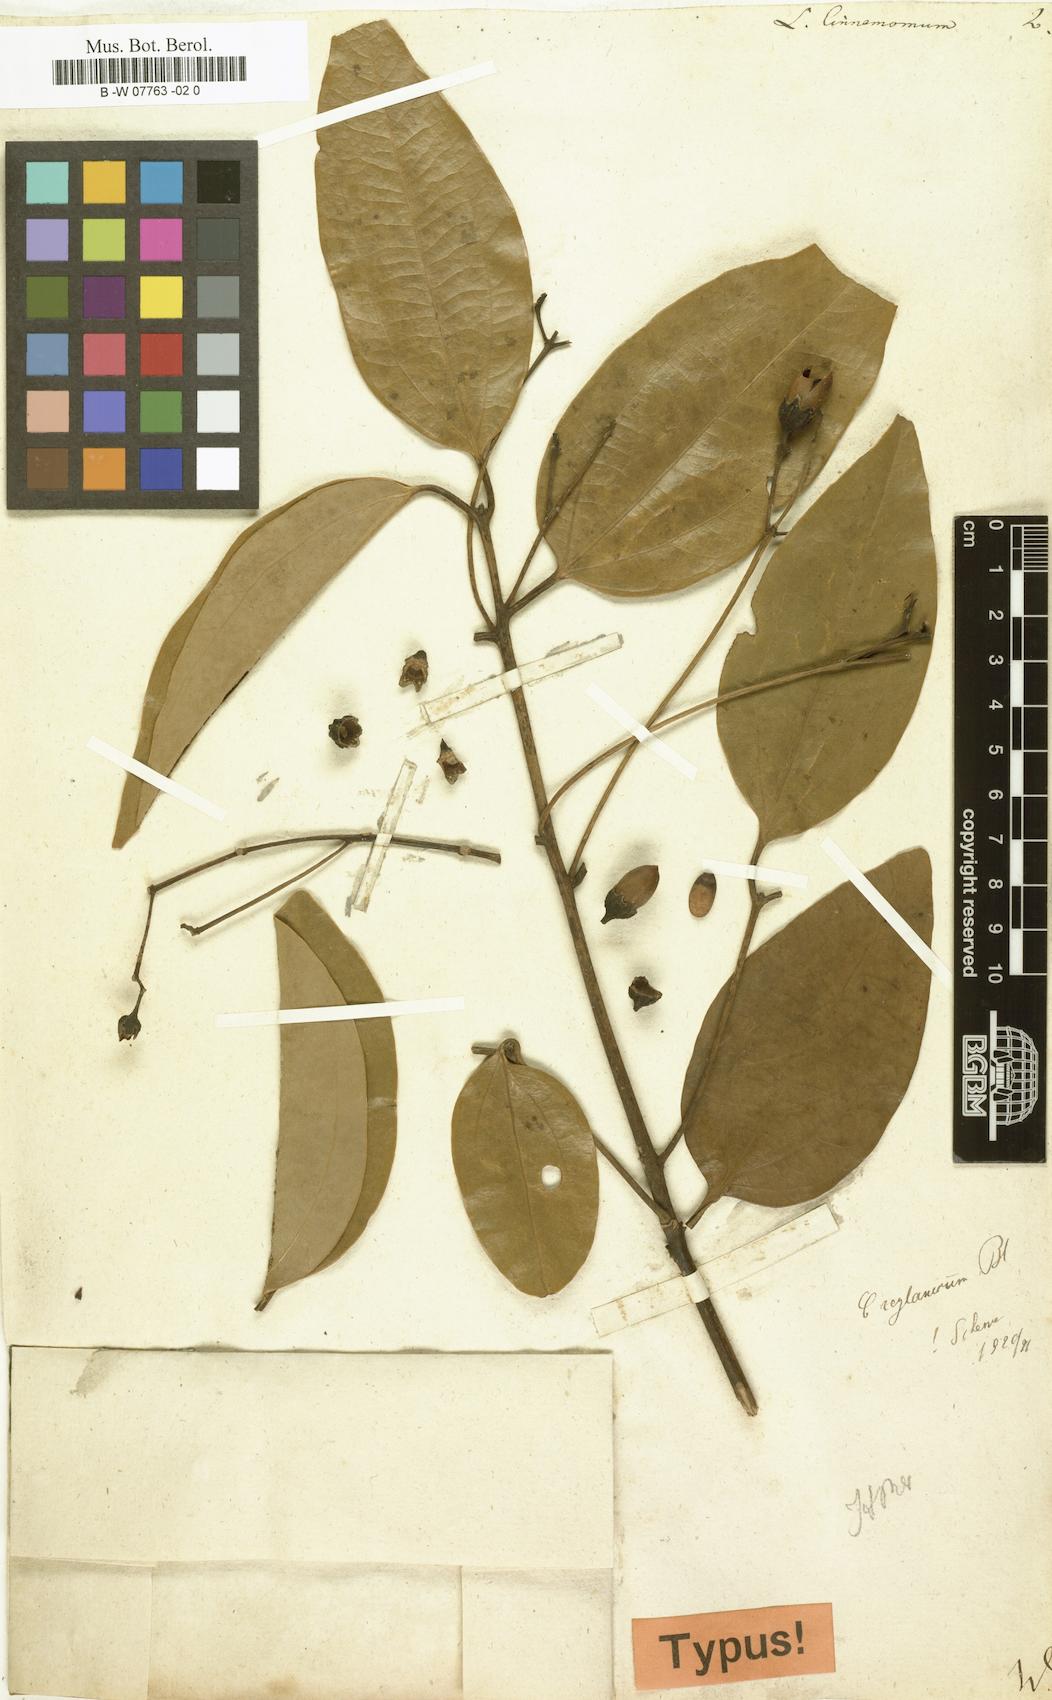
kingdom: Plantae
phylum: Tracheophyta
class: Magnoliopsida
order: Laurales
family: Lauraceae
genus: Cinnamomum
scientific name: Cinnamomum verum
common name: Cinnamon
